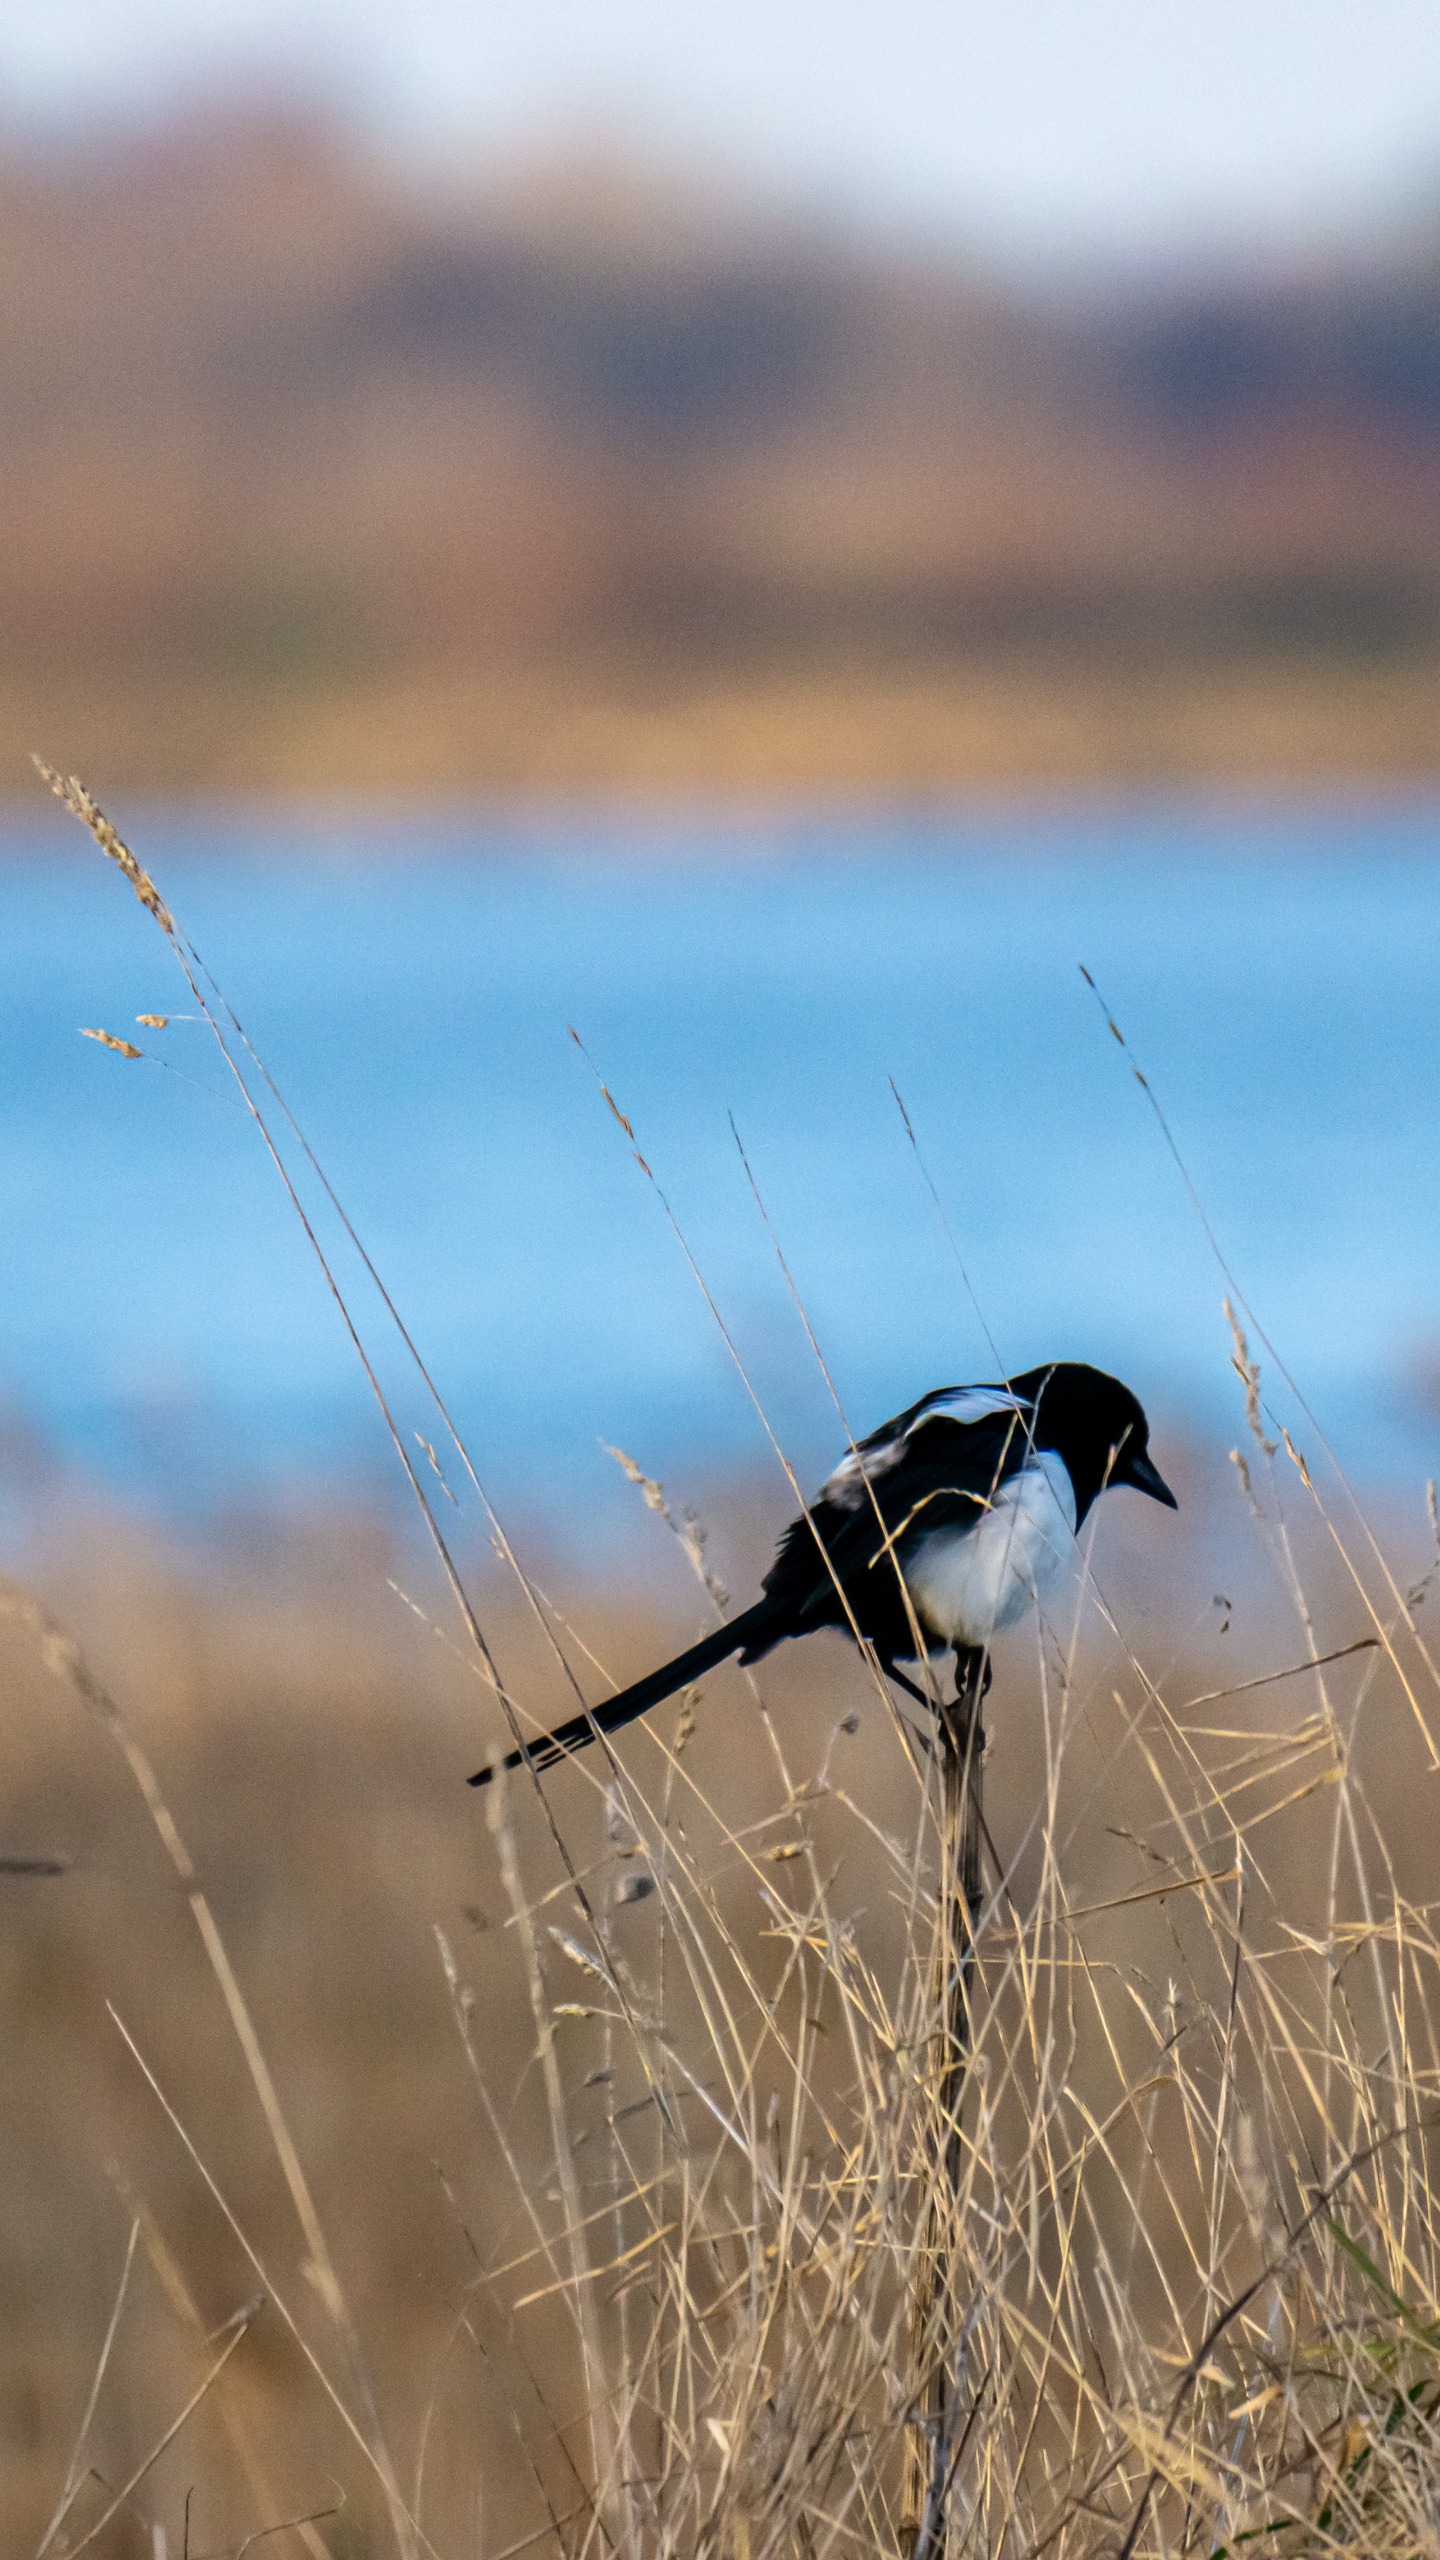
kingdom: Animalia
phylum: Chordata
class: Aves
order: Passeriformes
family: Corvidae
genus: Pica
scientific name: Pica pica
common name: Husskade
